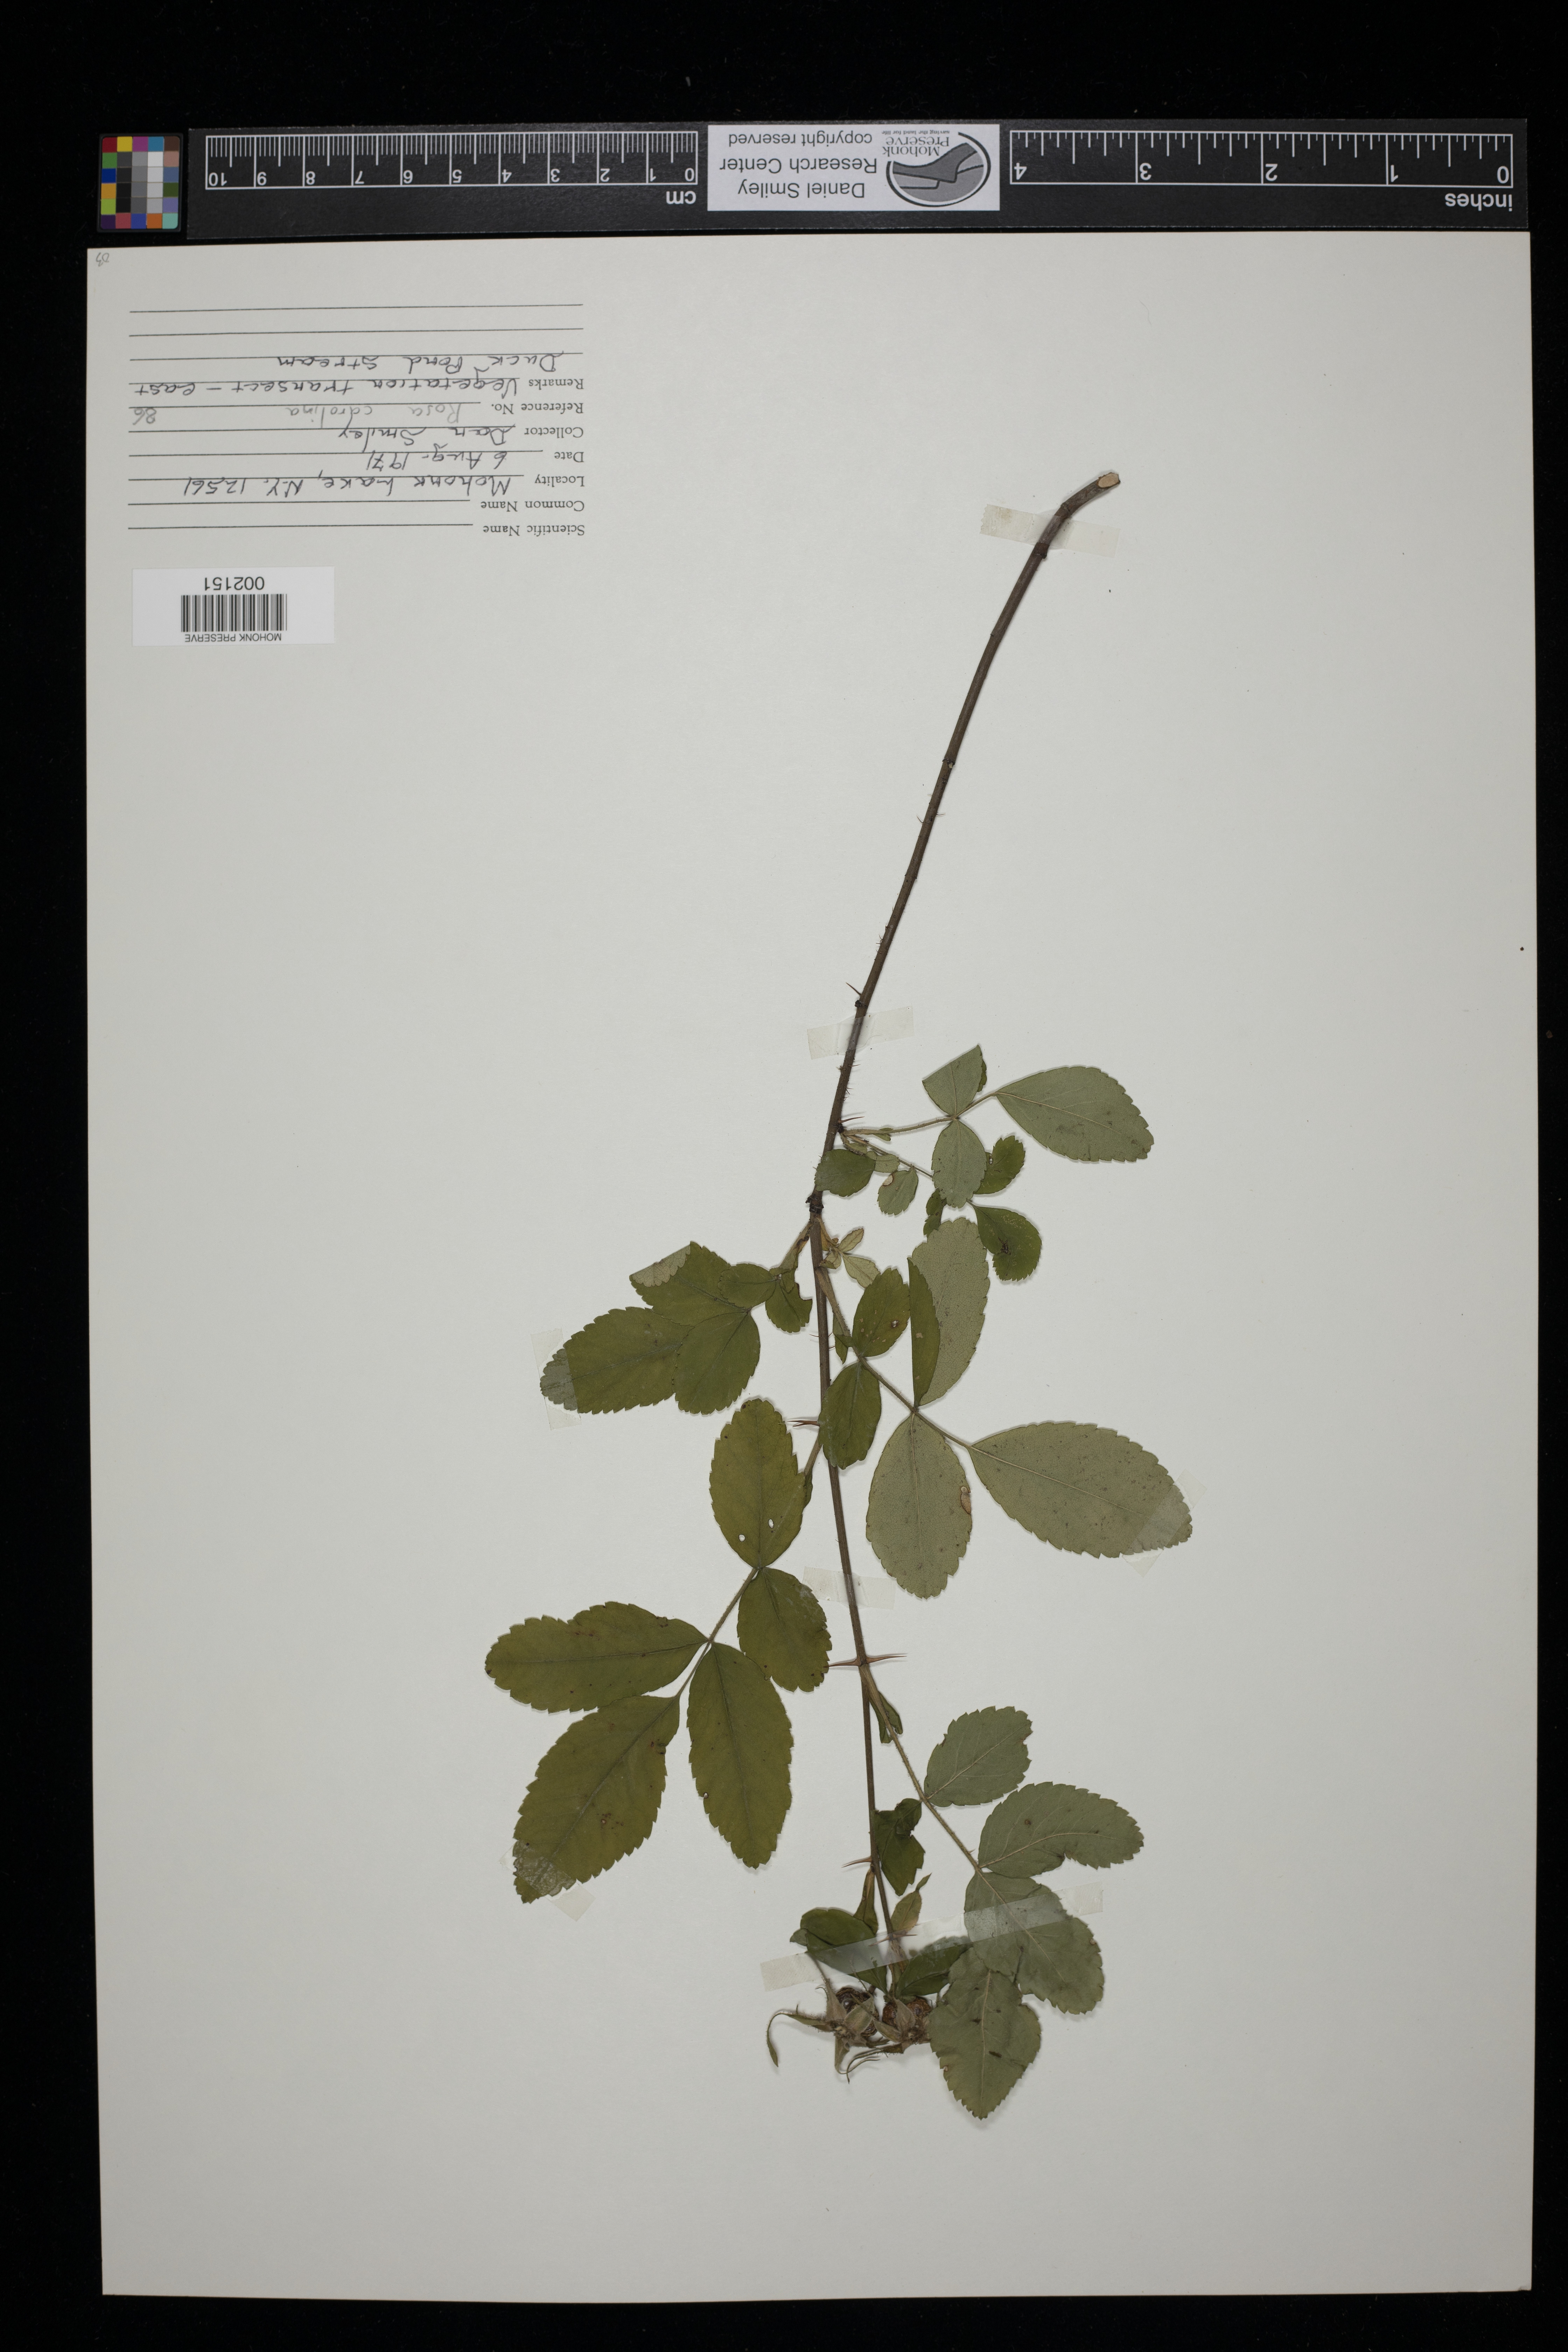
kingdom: Plantae
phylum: Tracheophyta
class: Magnoliopsida
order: Rosales
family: Rosaceae
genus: Rosa
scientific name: Rosa carolina
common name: Pasture rose
